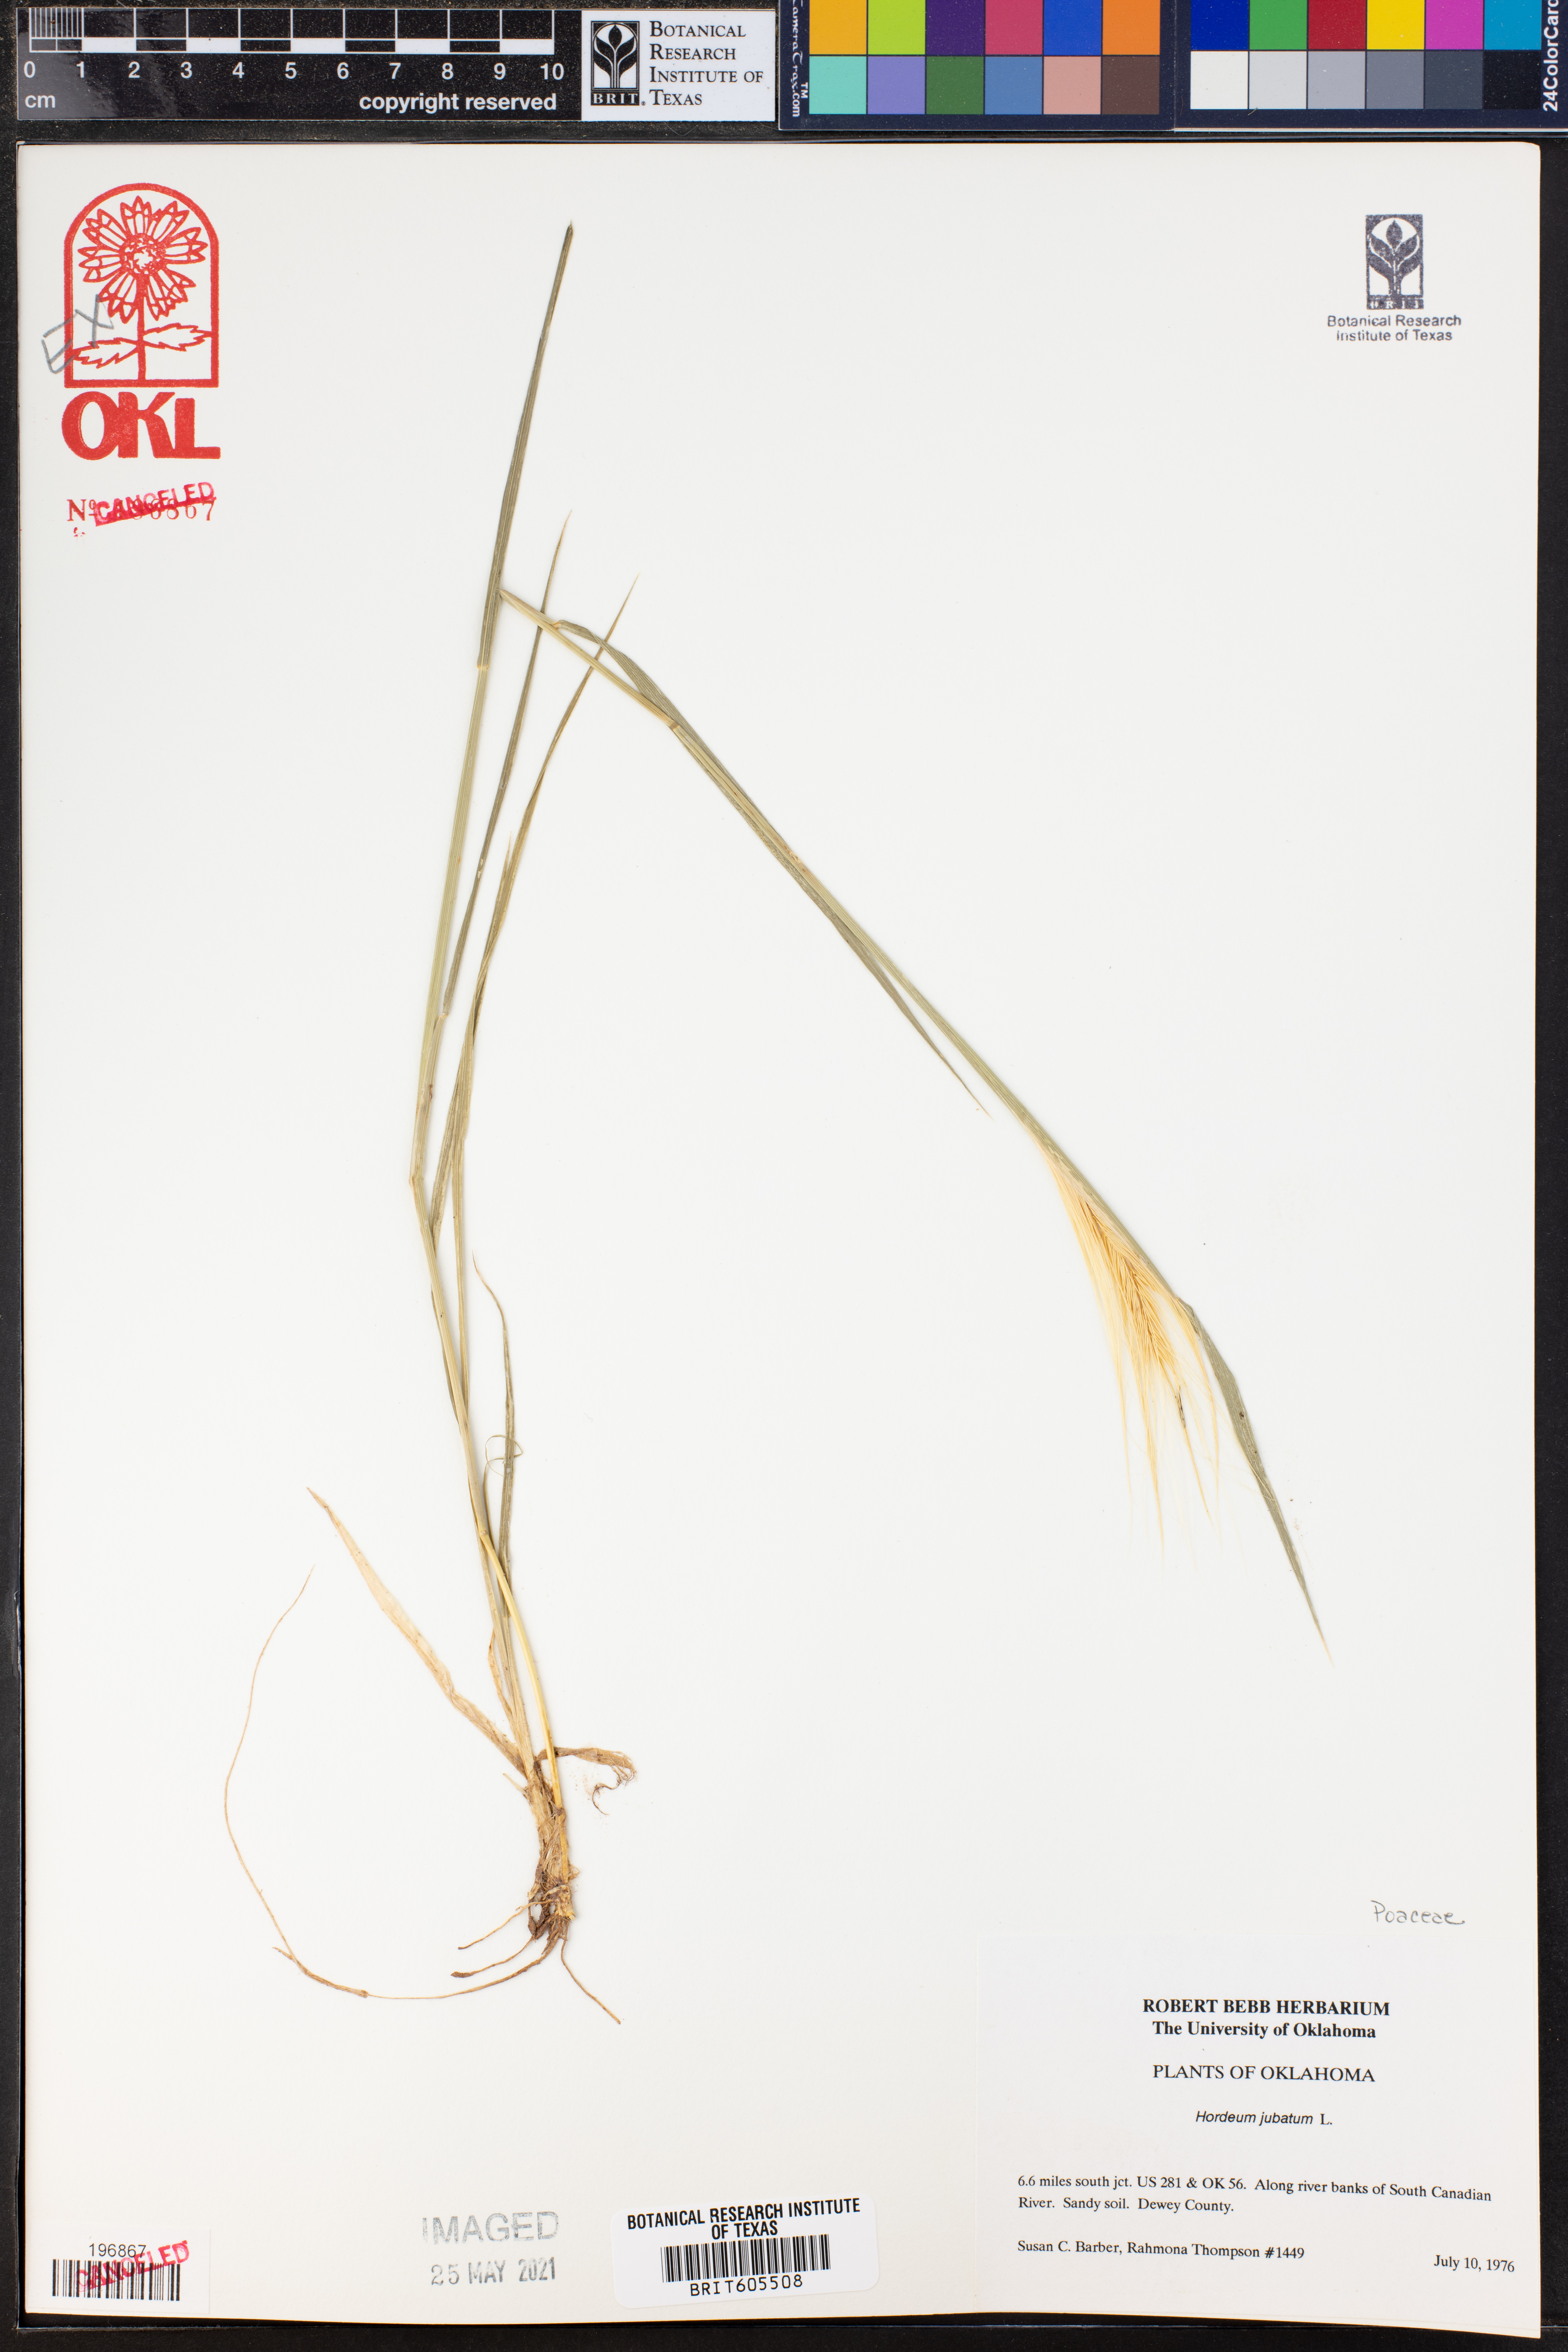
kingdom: Plantae
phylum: Tracheophyta
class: Liliopsida
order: Poales
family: Poaceae
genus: Hordeum
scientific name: Hordeum jubatum
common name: Foxtail barley
